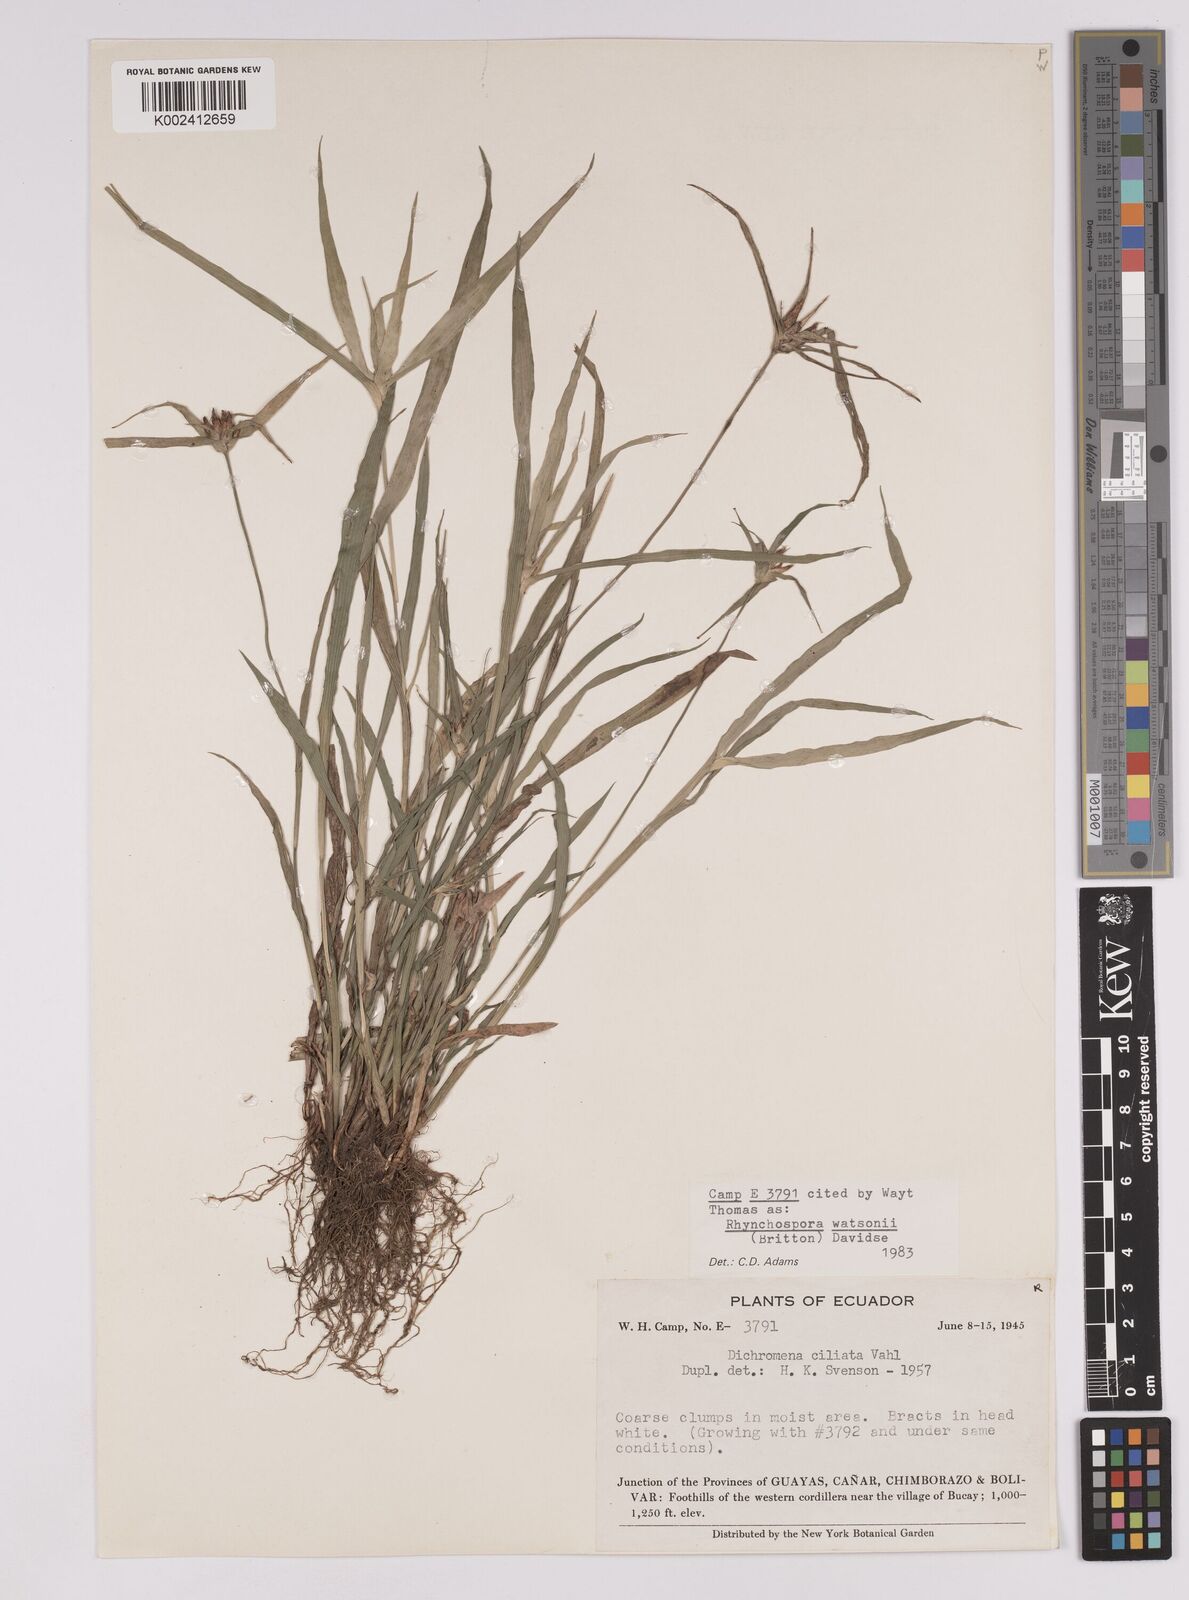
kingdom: Plantae
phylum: Tracheophyta
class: Liliopsida
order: Poales
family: Cyperaceae
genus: Rhynchospora
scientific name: Rhynchospora watsonii
